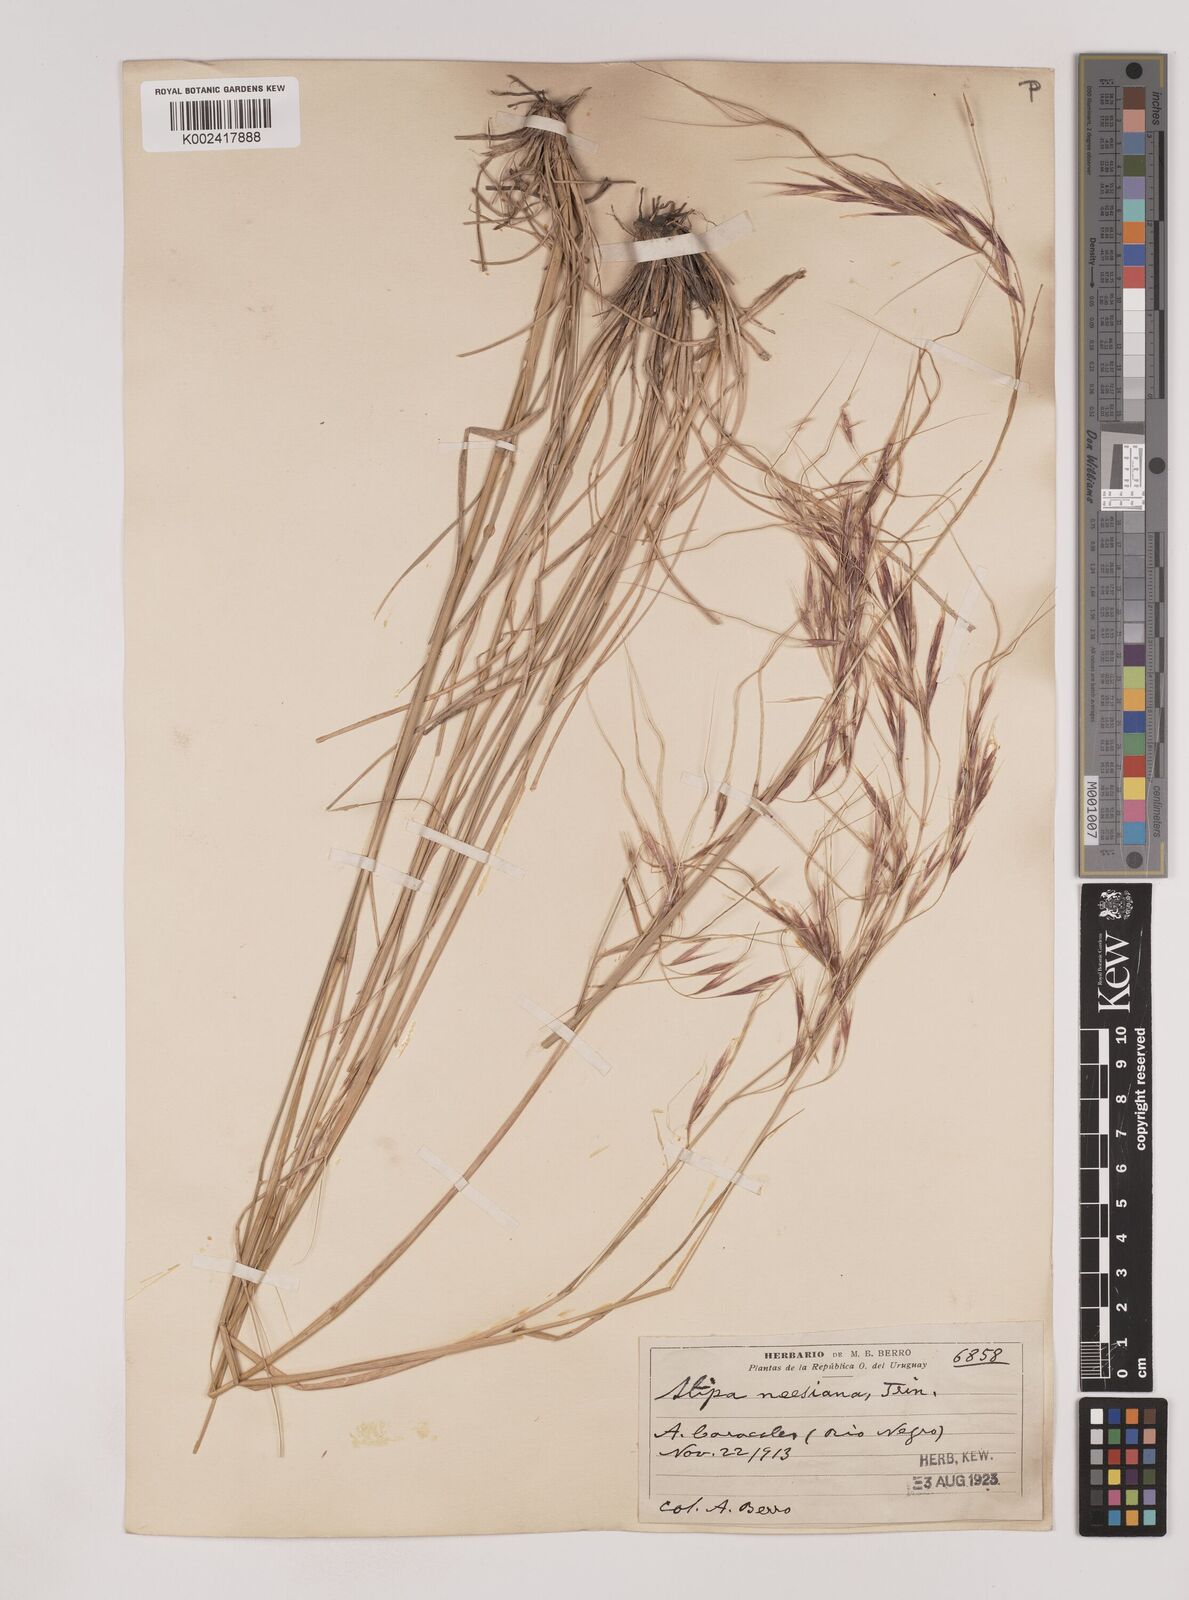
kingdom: Plantae
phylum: Tracheophyta
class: Liliopsida
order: Poales
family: Poaceae
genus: Nassella
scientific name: Nassella neesiana
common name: American needle-grass
